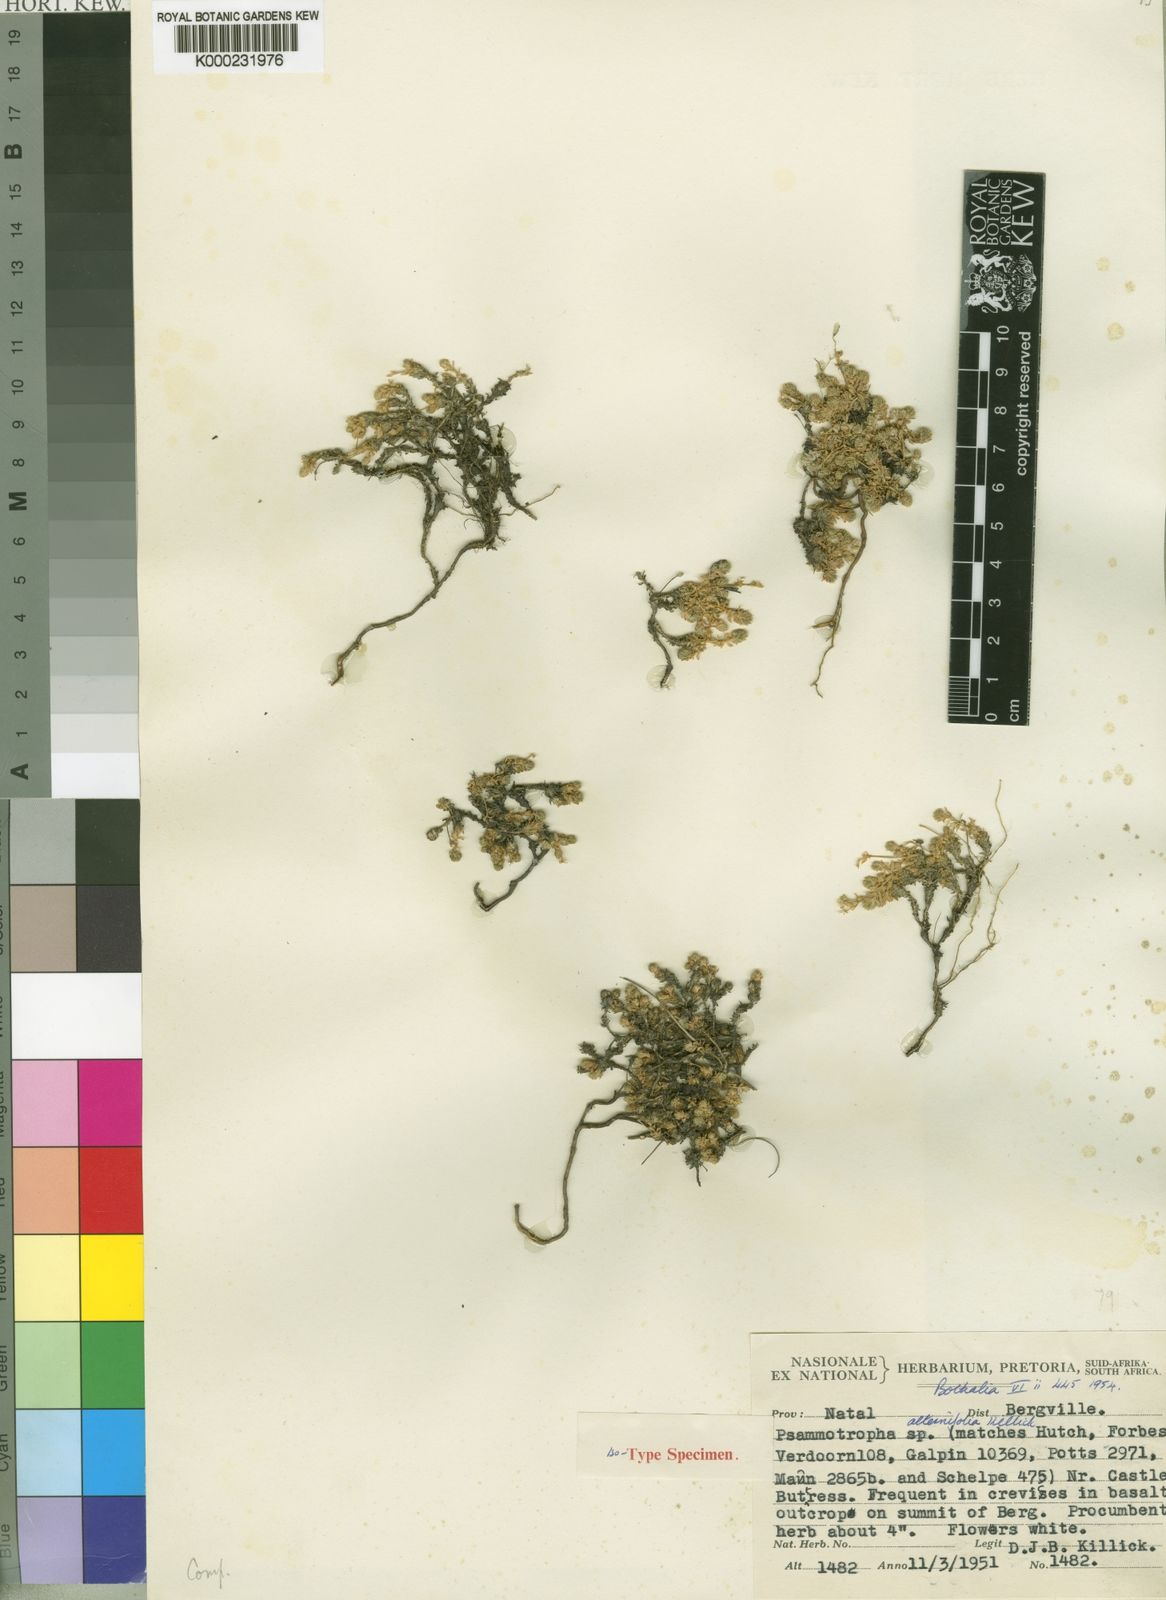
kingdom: Plantae
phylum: Tracheophyta
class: Magnoliopsida
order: Caryophyllales
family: Molluginaceae
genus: Psammotropha
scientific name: Psammotropha alternifolia
